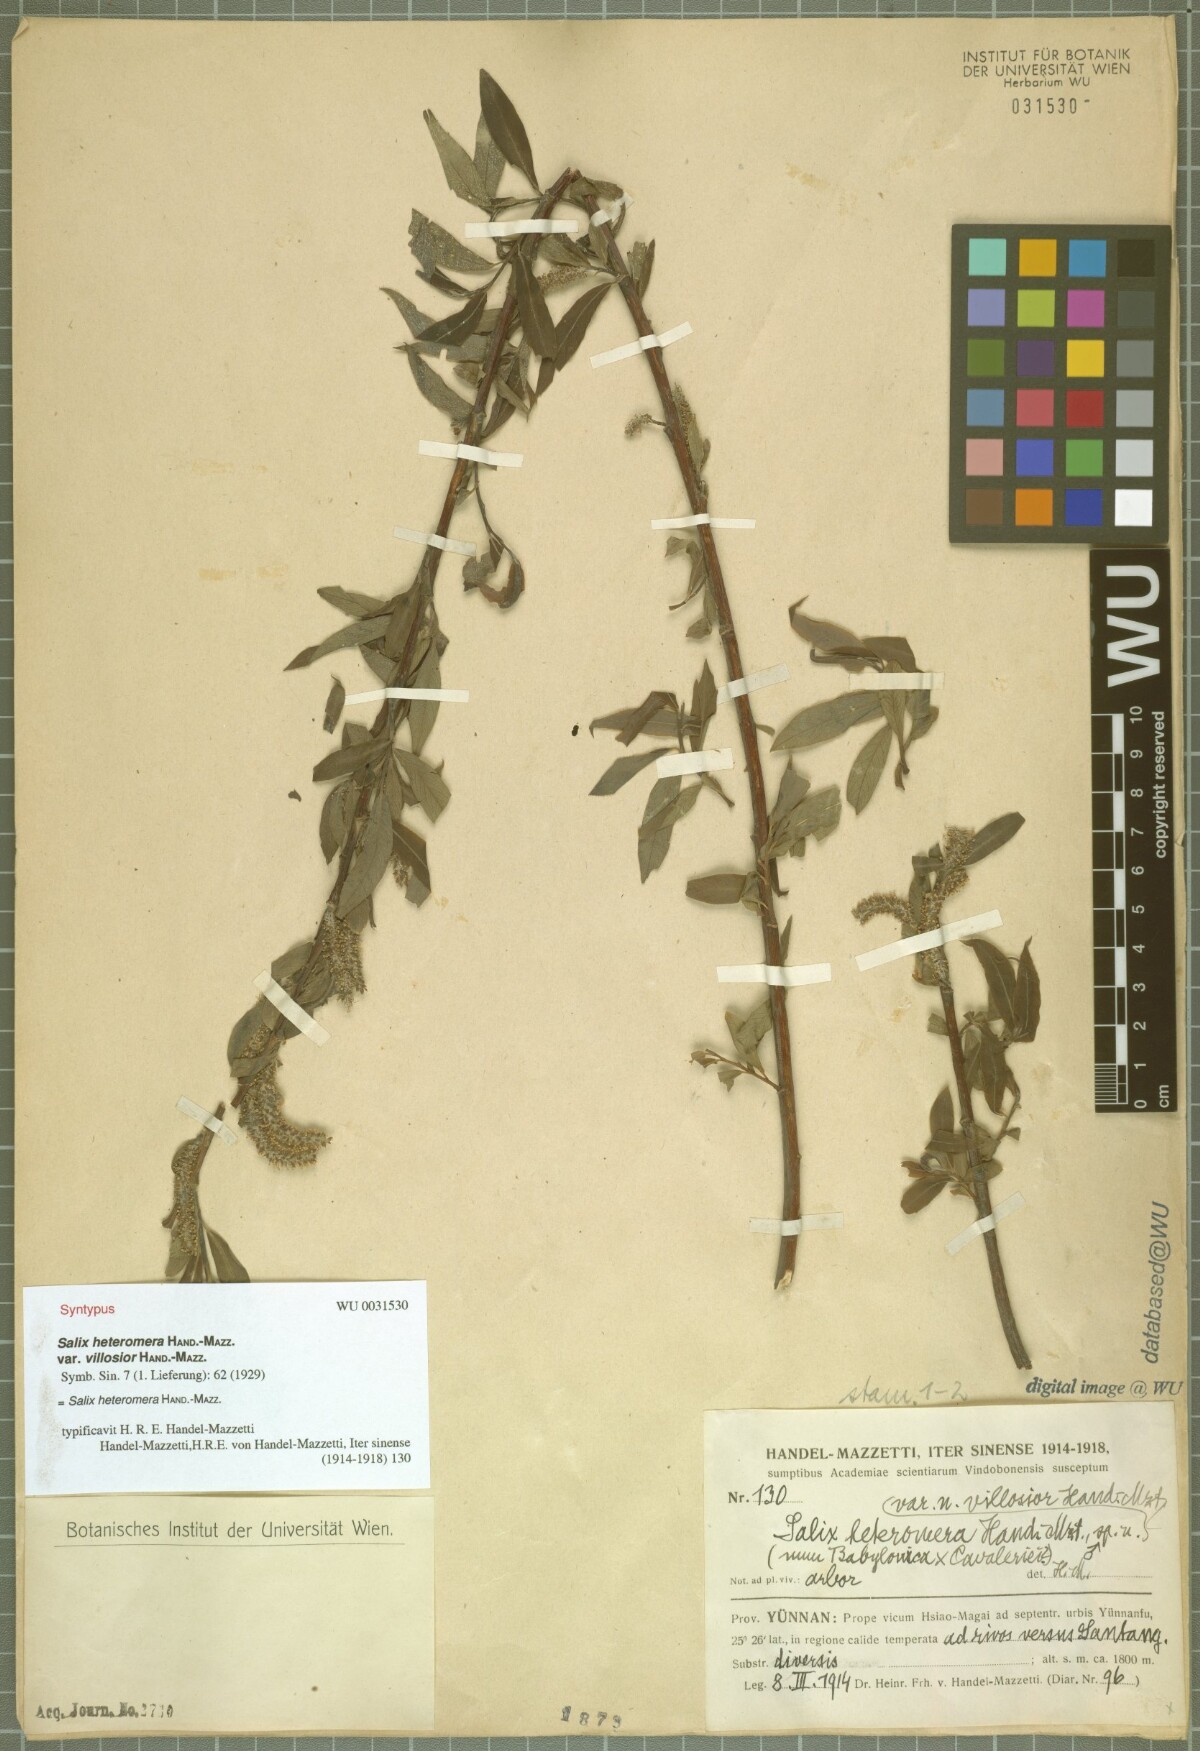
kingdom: Plantae
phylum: Tracheophyta
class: Magnoliopsida
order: Malpighiales
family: Salicaceae
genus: Salix
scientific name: Salix heteromera
